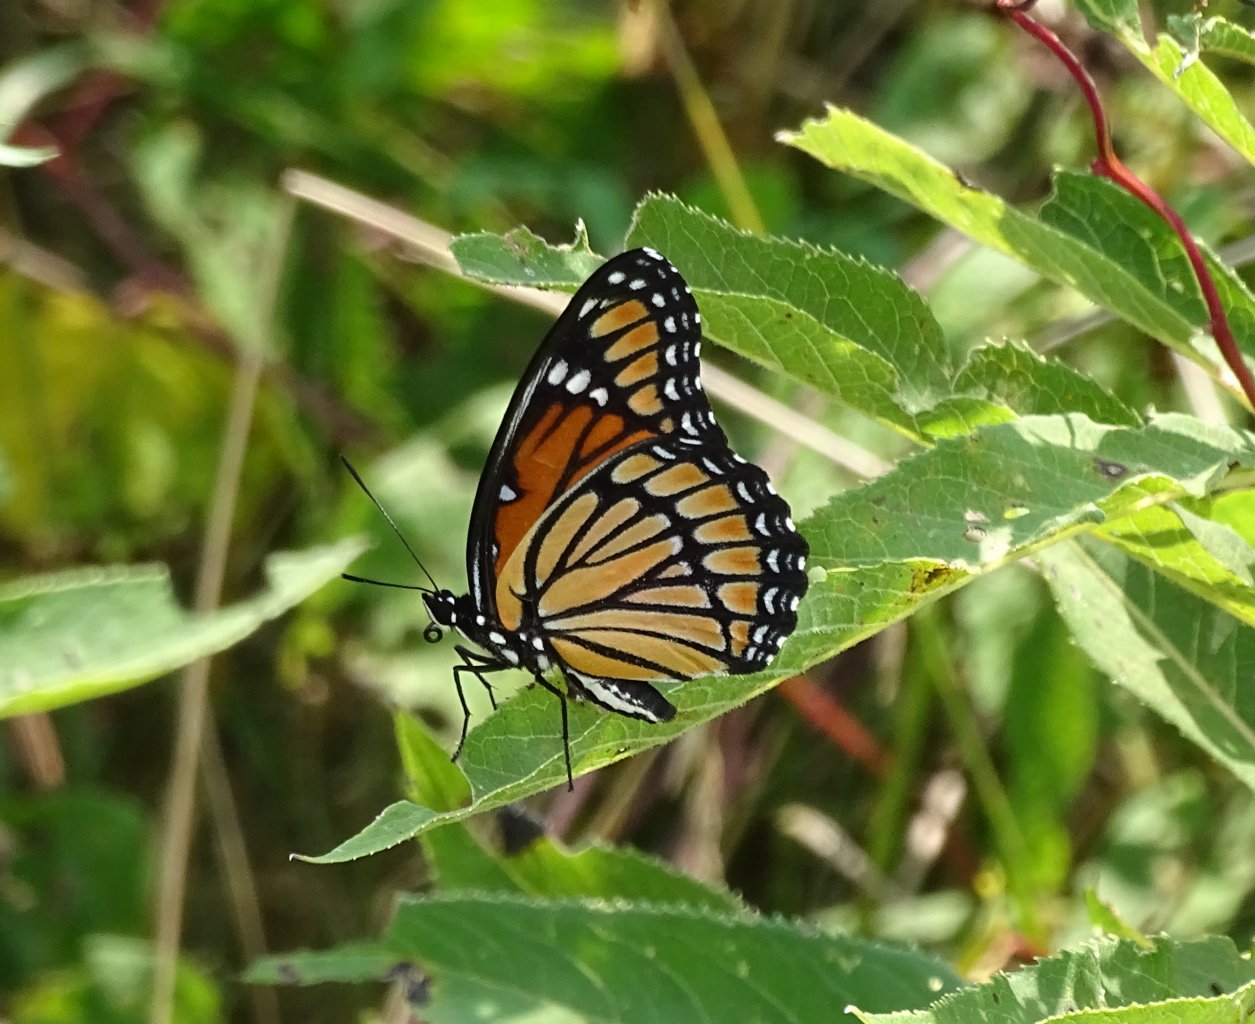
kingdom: Animalia
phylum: Arthropoda
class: Insecta
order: Lepidoptera
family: Nymphalidae
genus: Limenitis
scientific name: Limenitis archippus
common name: Viceroy
